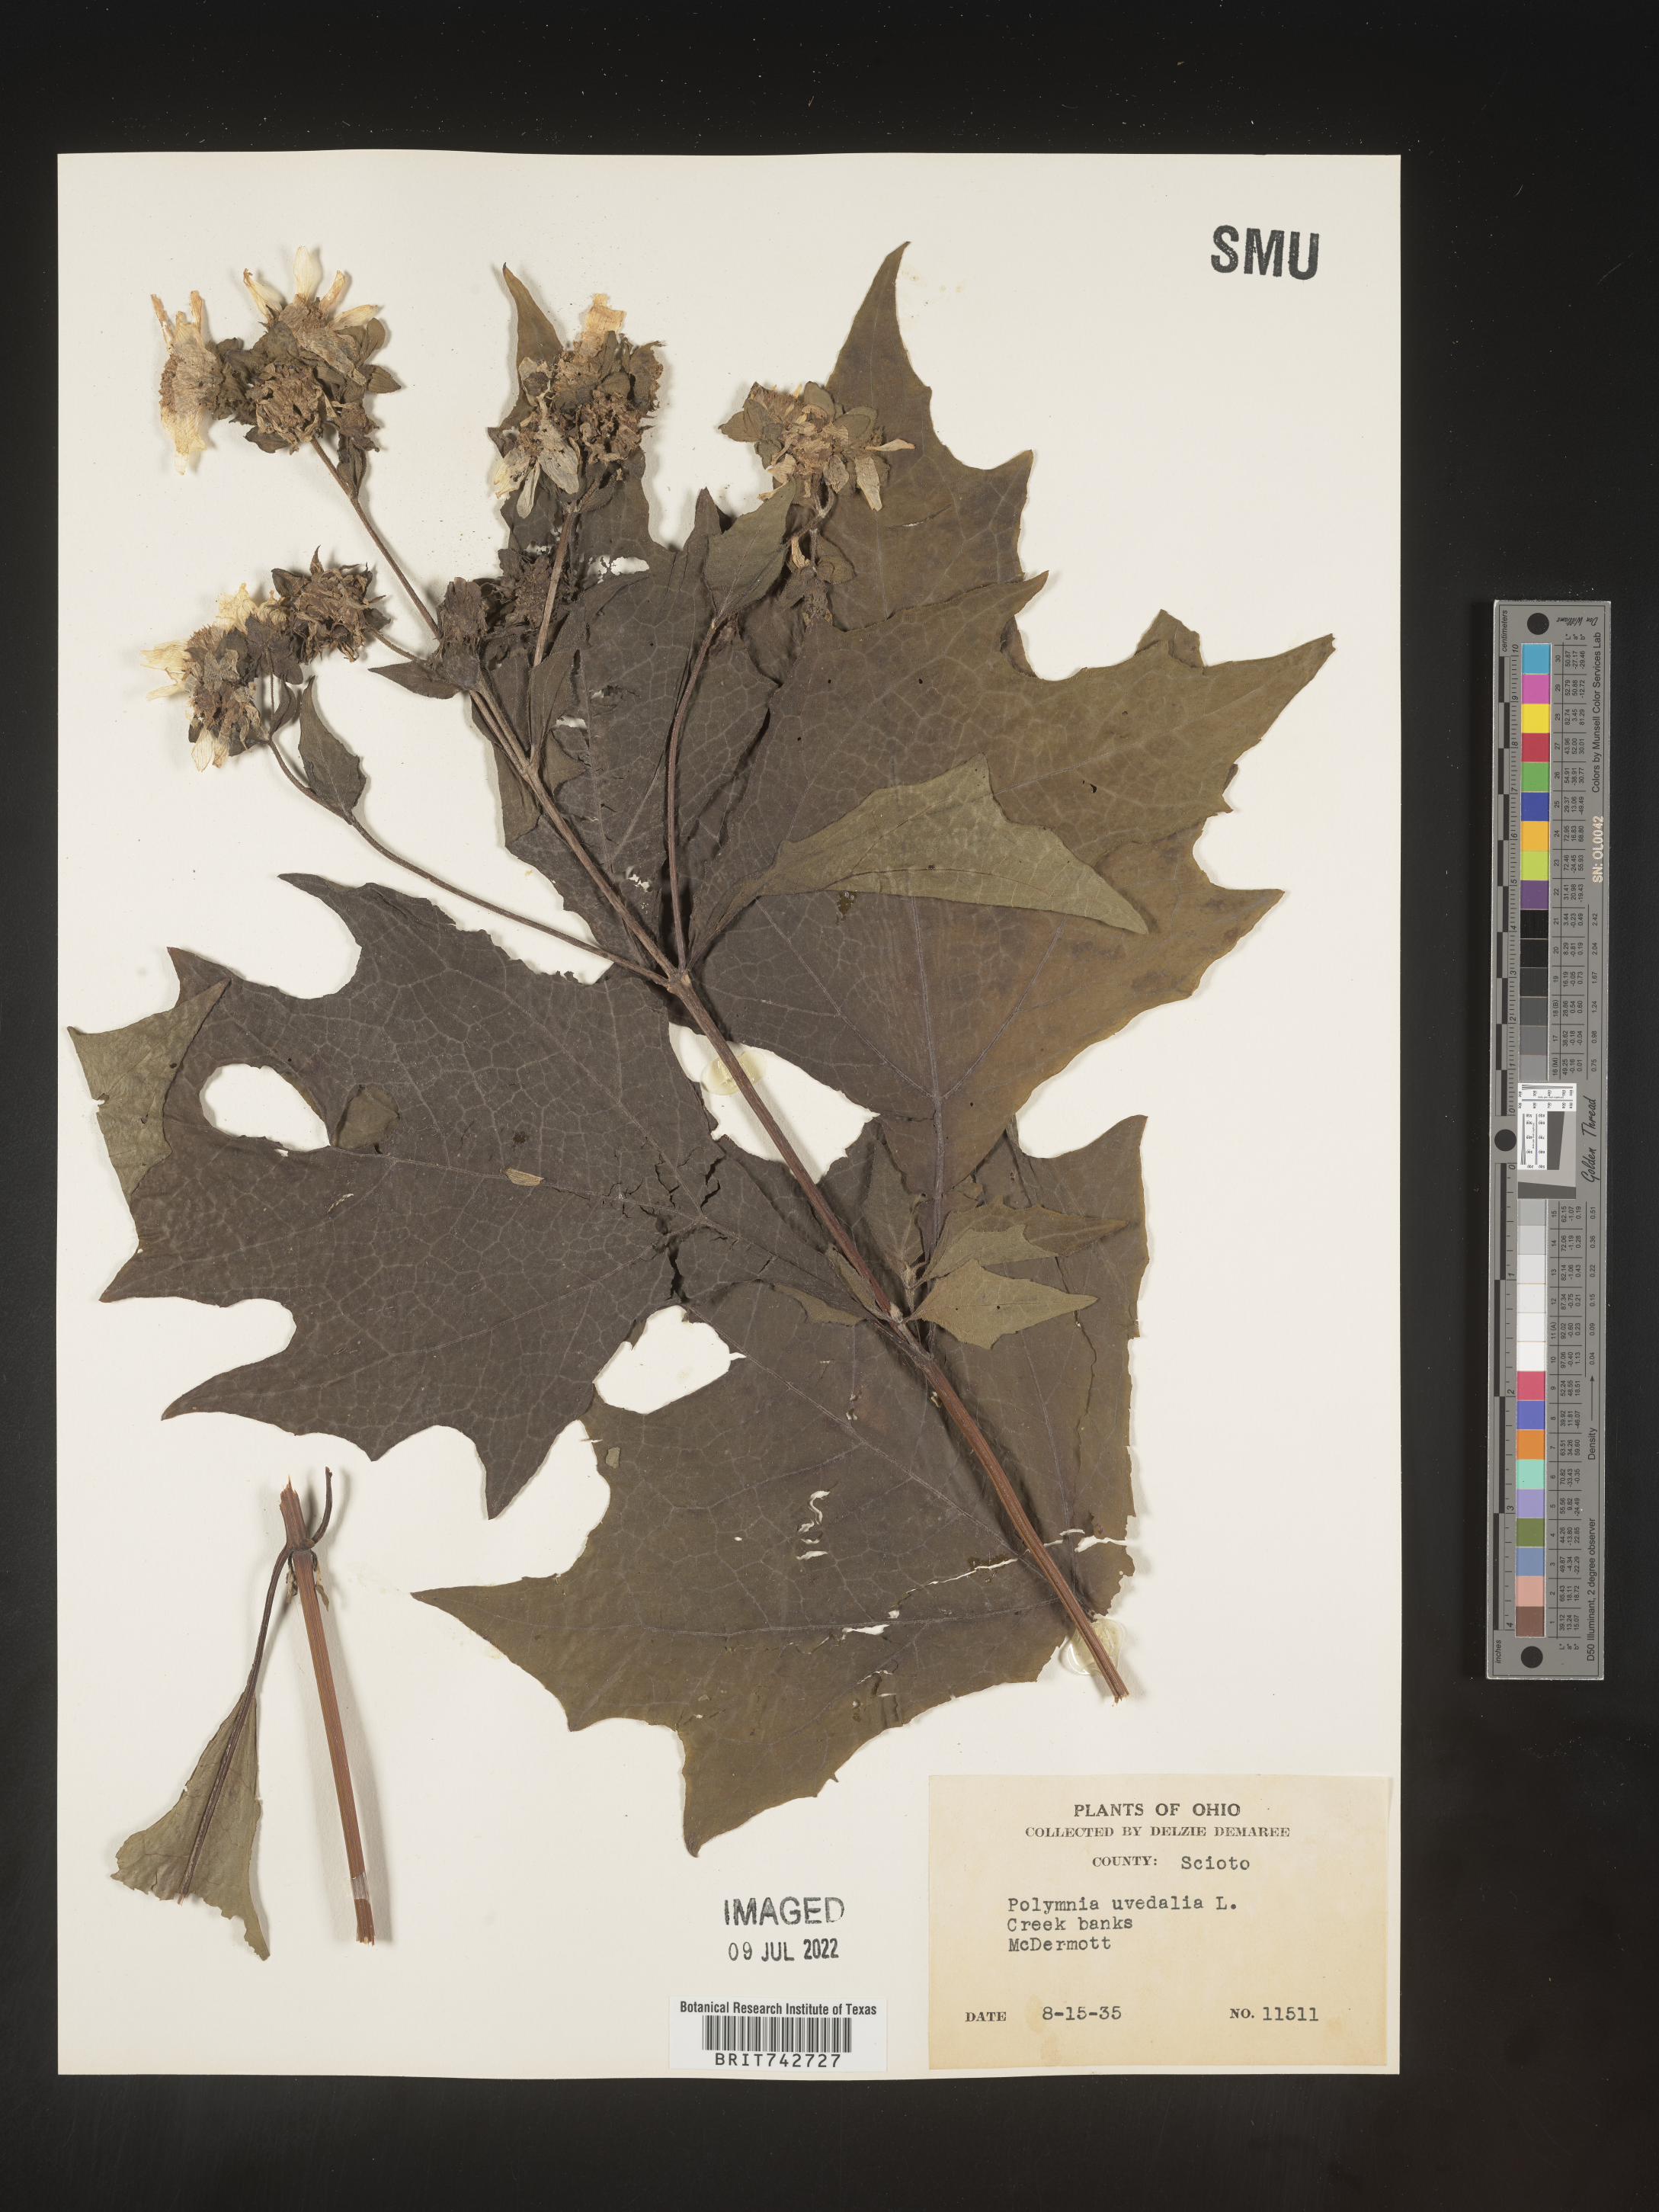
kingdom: Plantae
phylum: Tracheophyta
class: Magnoliopsida
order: Asterales
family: Asteraceae
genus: Smallanthus
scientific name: Smallanthus uvedalia
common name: Bear's-foot
